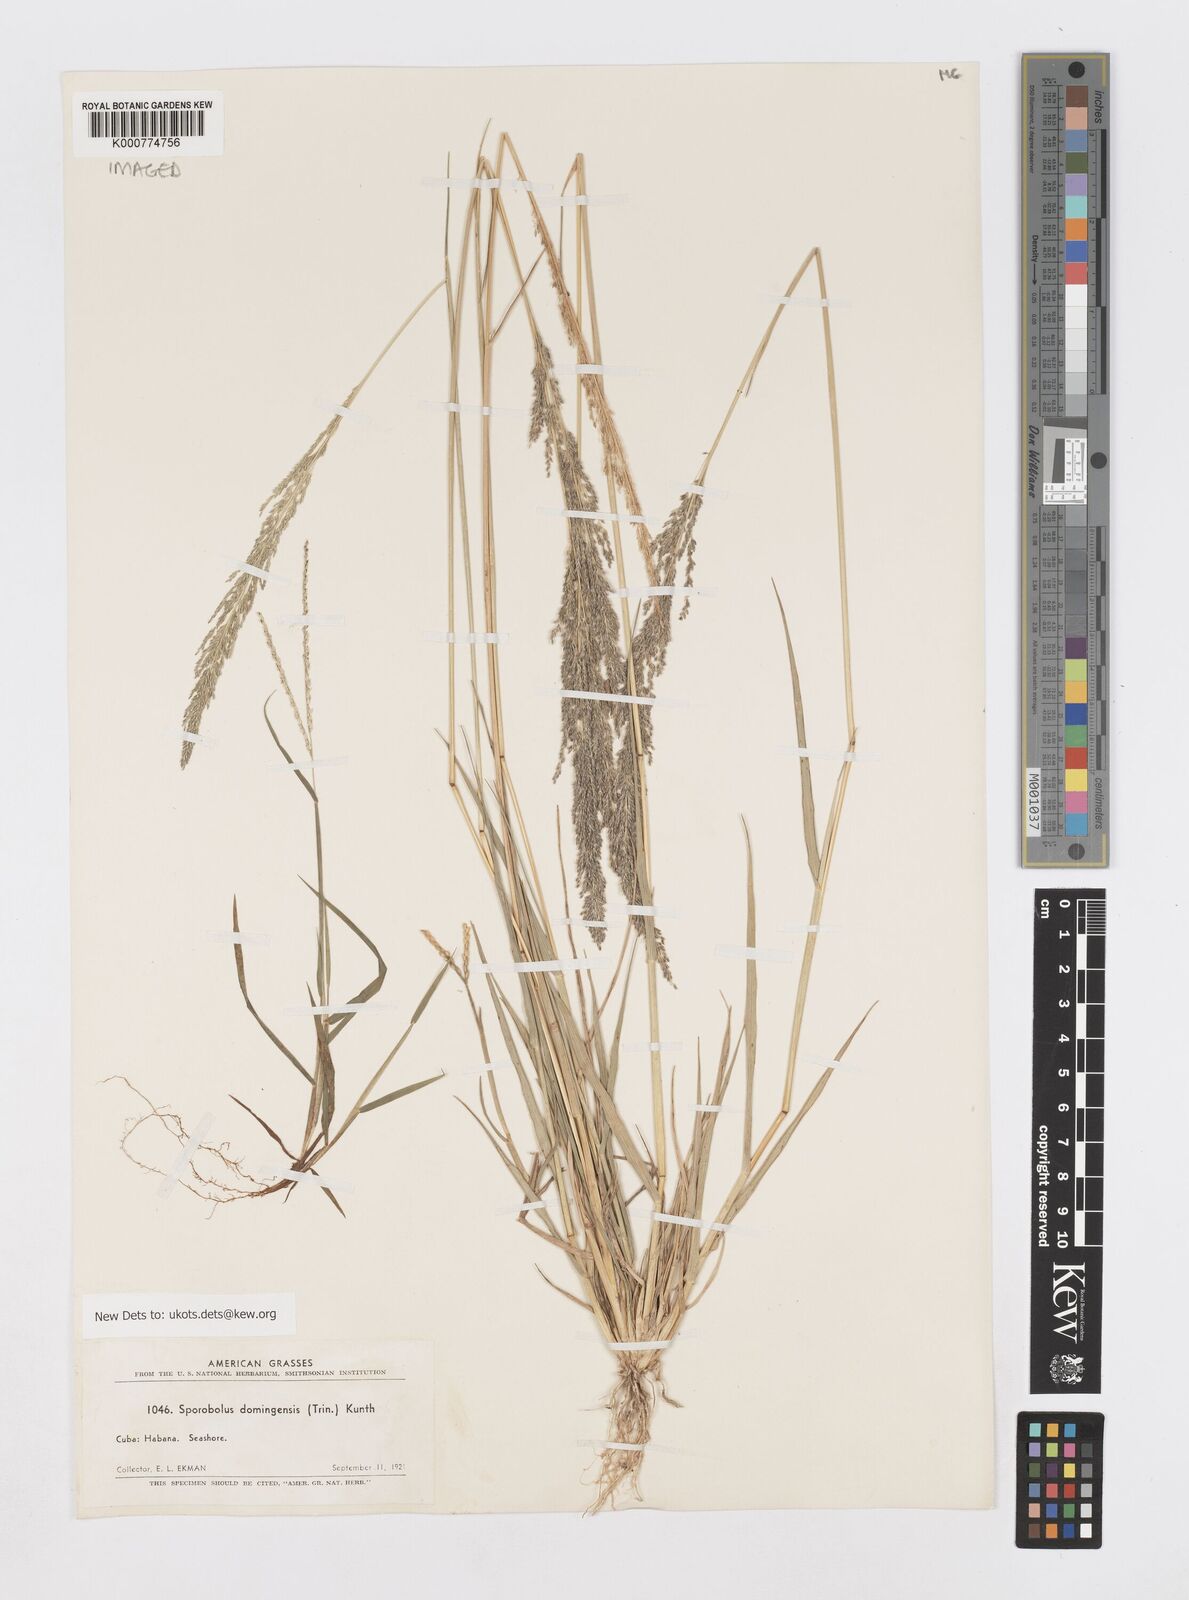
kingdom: Plantae
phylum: Tracheophyta
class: Liliopsida
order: Poales
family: Poaceae
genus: Sporobolus
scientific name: Sporobolus domingensis
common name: Coral dropseed
